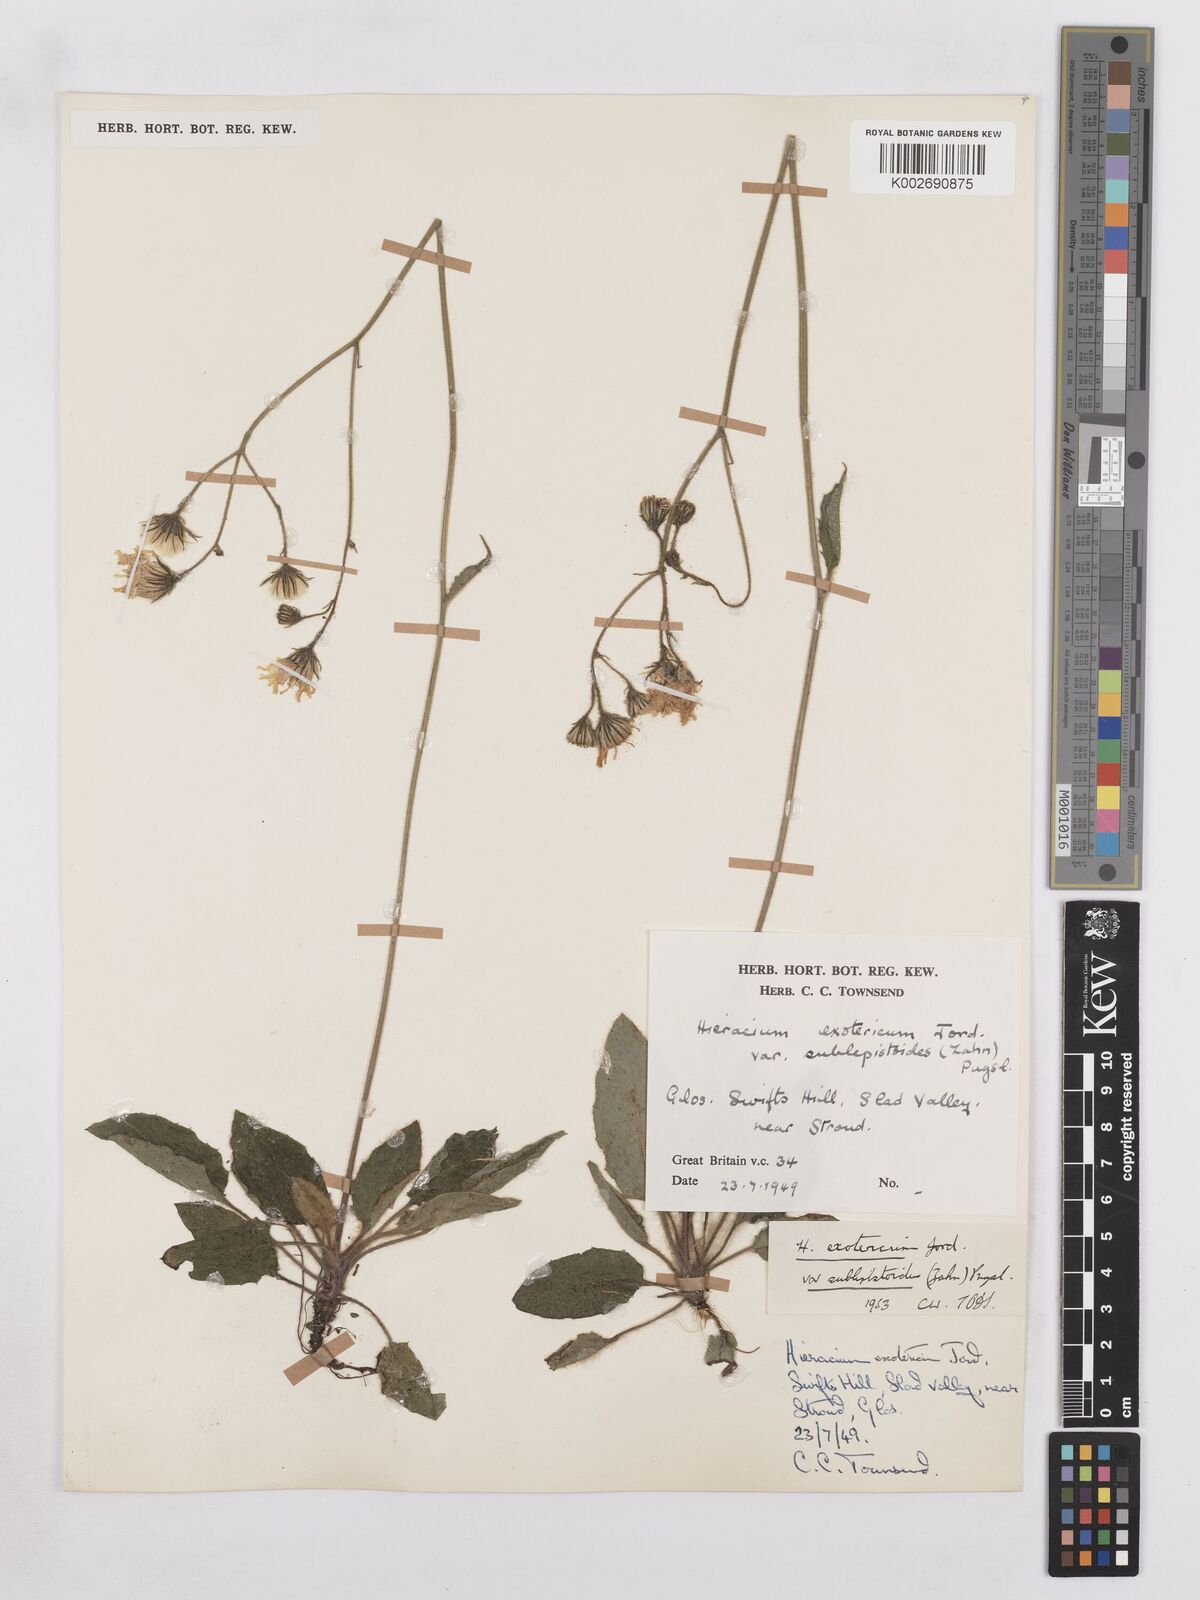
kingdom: Plantae
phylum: Tracheophyta
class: Magnoliopsida
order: Asterales
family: Asteraceae
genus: Hieracium
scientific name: Hieracium murorum
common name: Wall hawkweed
